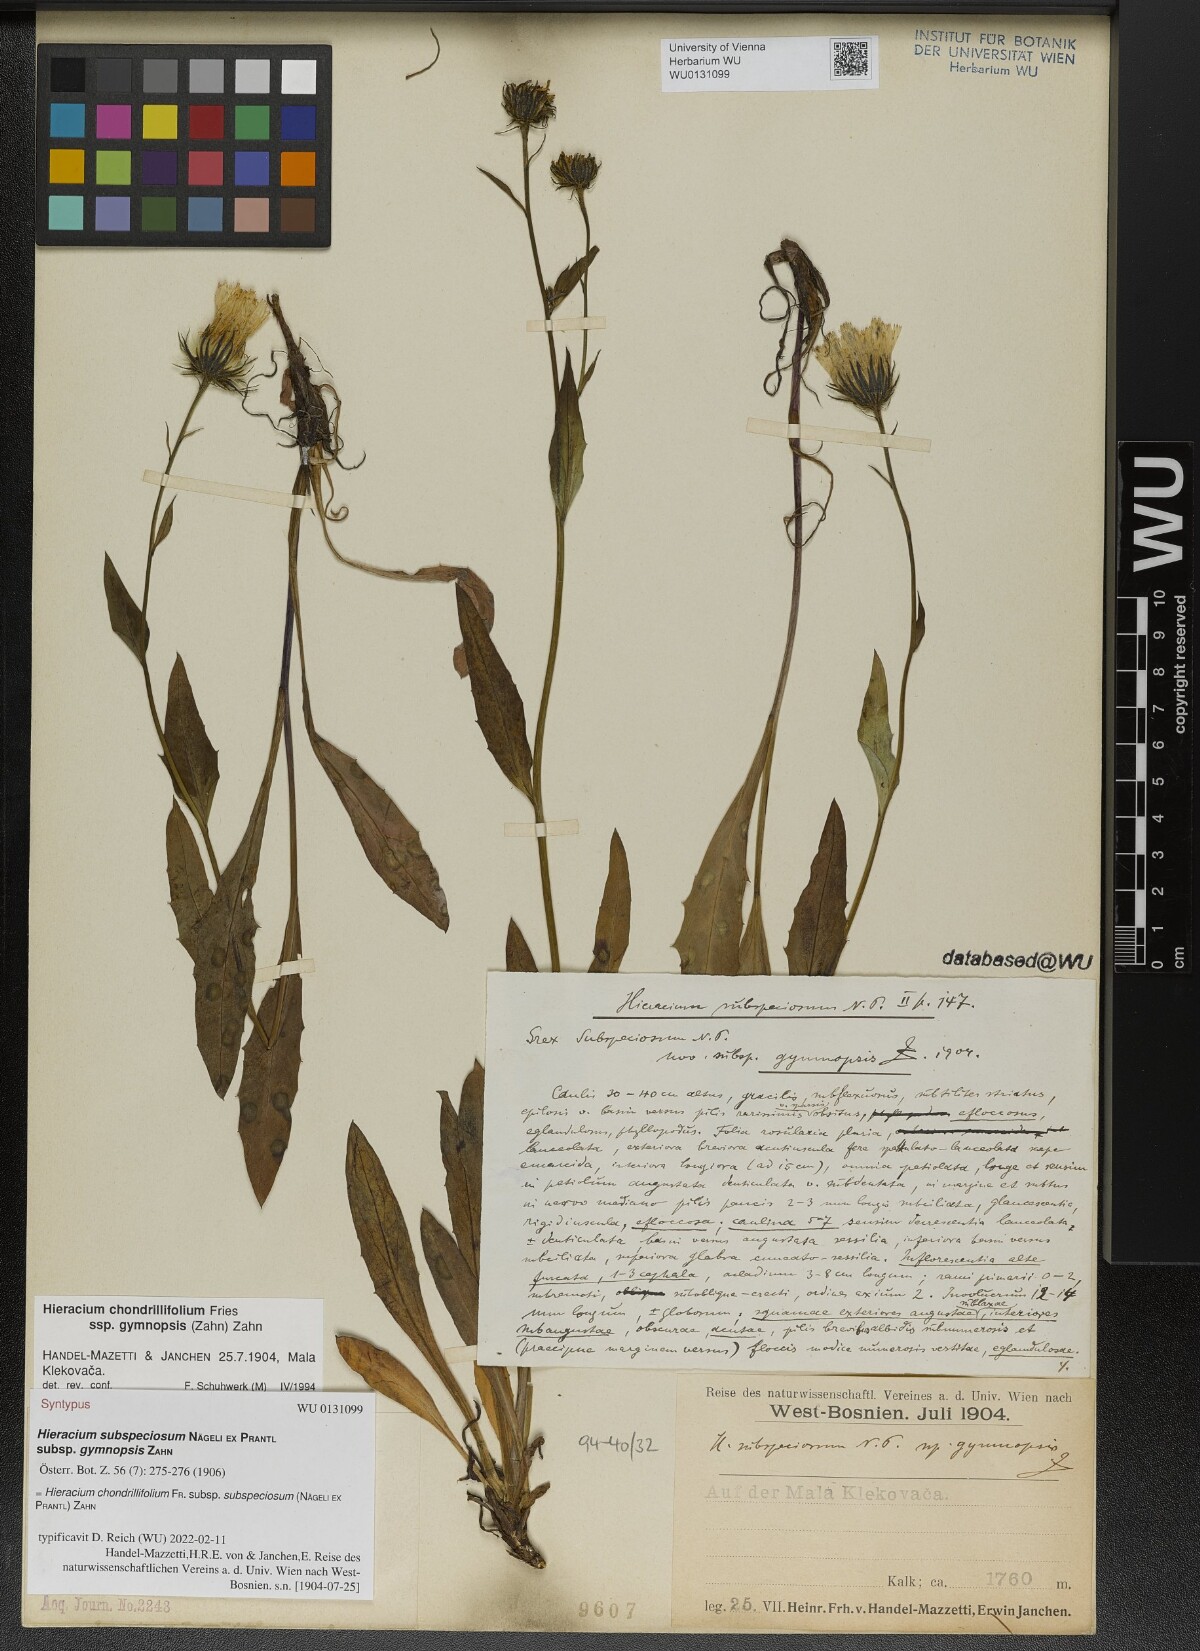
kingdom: Plantae
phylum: Tracheophyta
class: Magnoliopsida
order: Asterales
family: Asteraceae
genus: Hieracium
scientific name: Hieracium chondrillifolium
